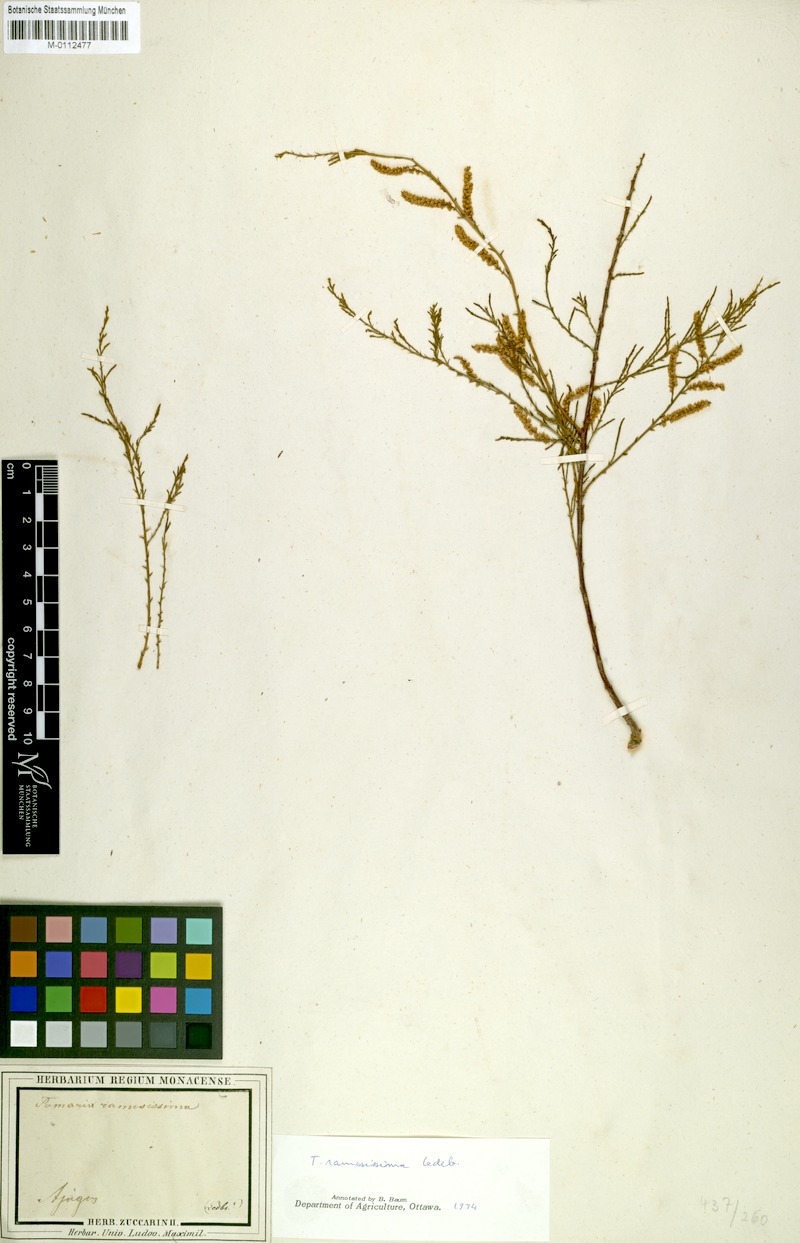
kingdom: Plantae
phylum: Tracheophyta
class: Magnoliopsida
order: Caryophyllales
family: Tamaricaceae
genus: Tamarix
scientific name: Tamarix ramosissima
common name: Pink tamarisk
